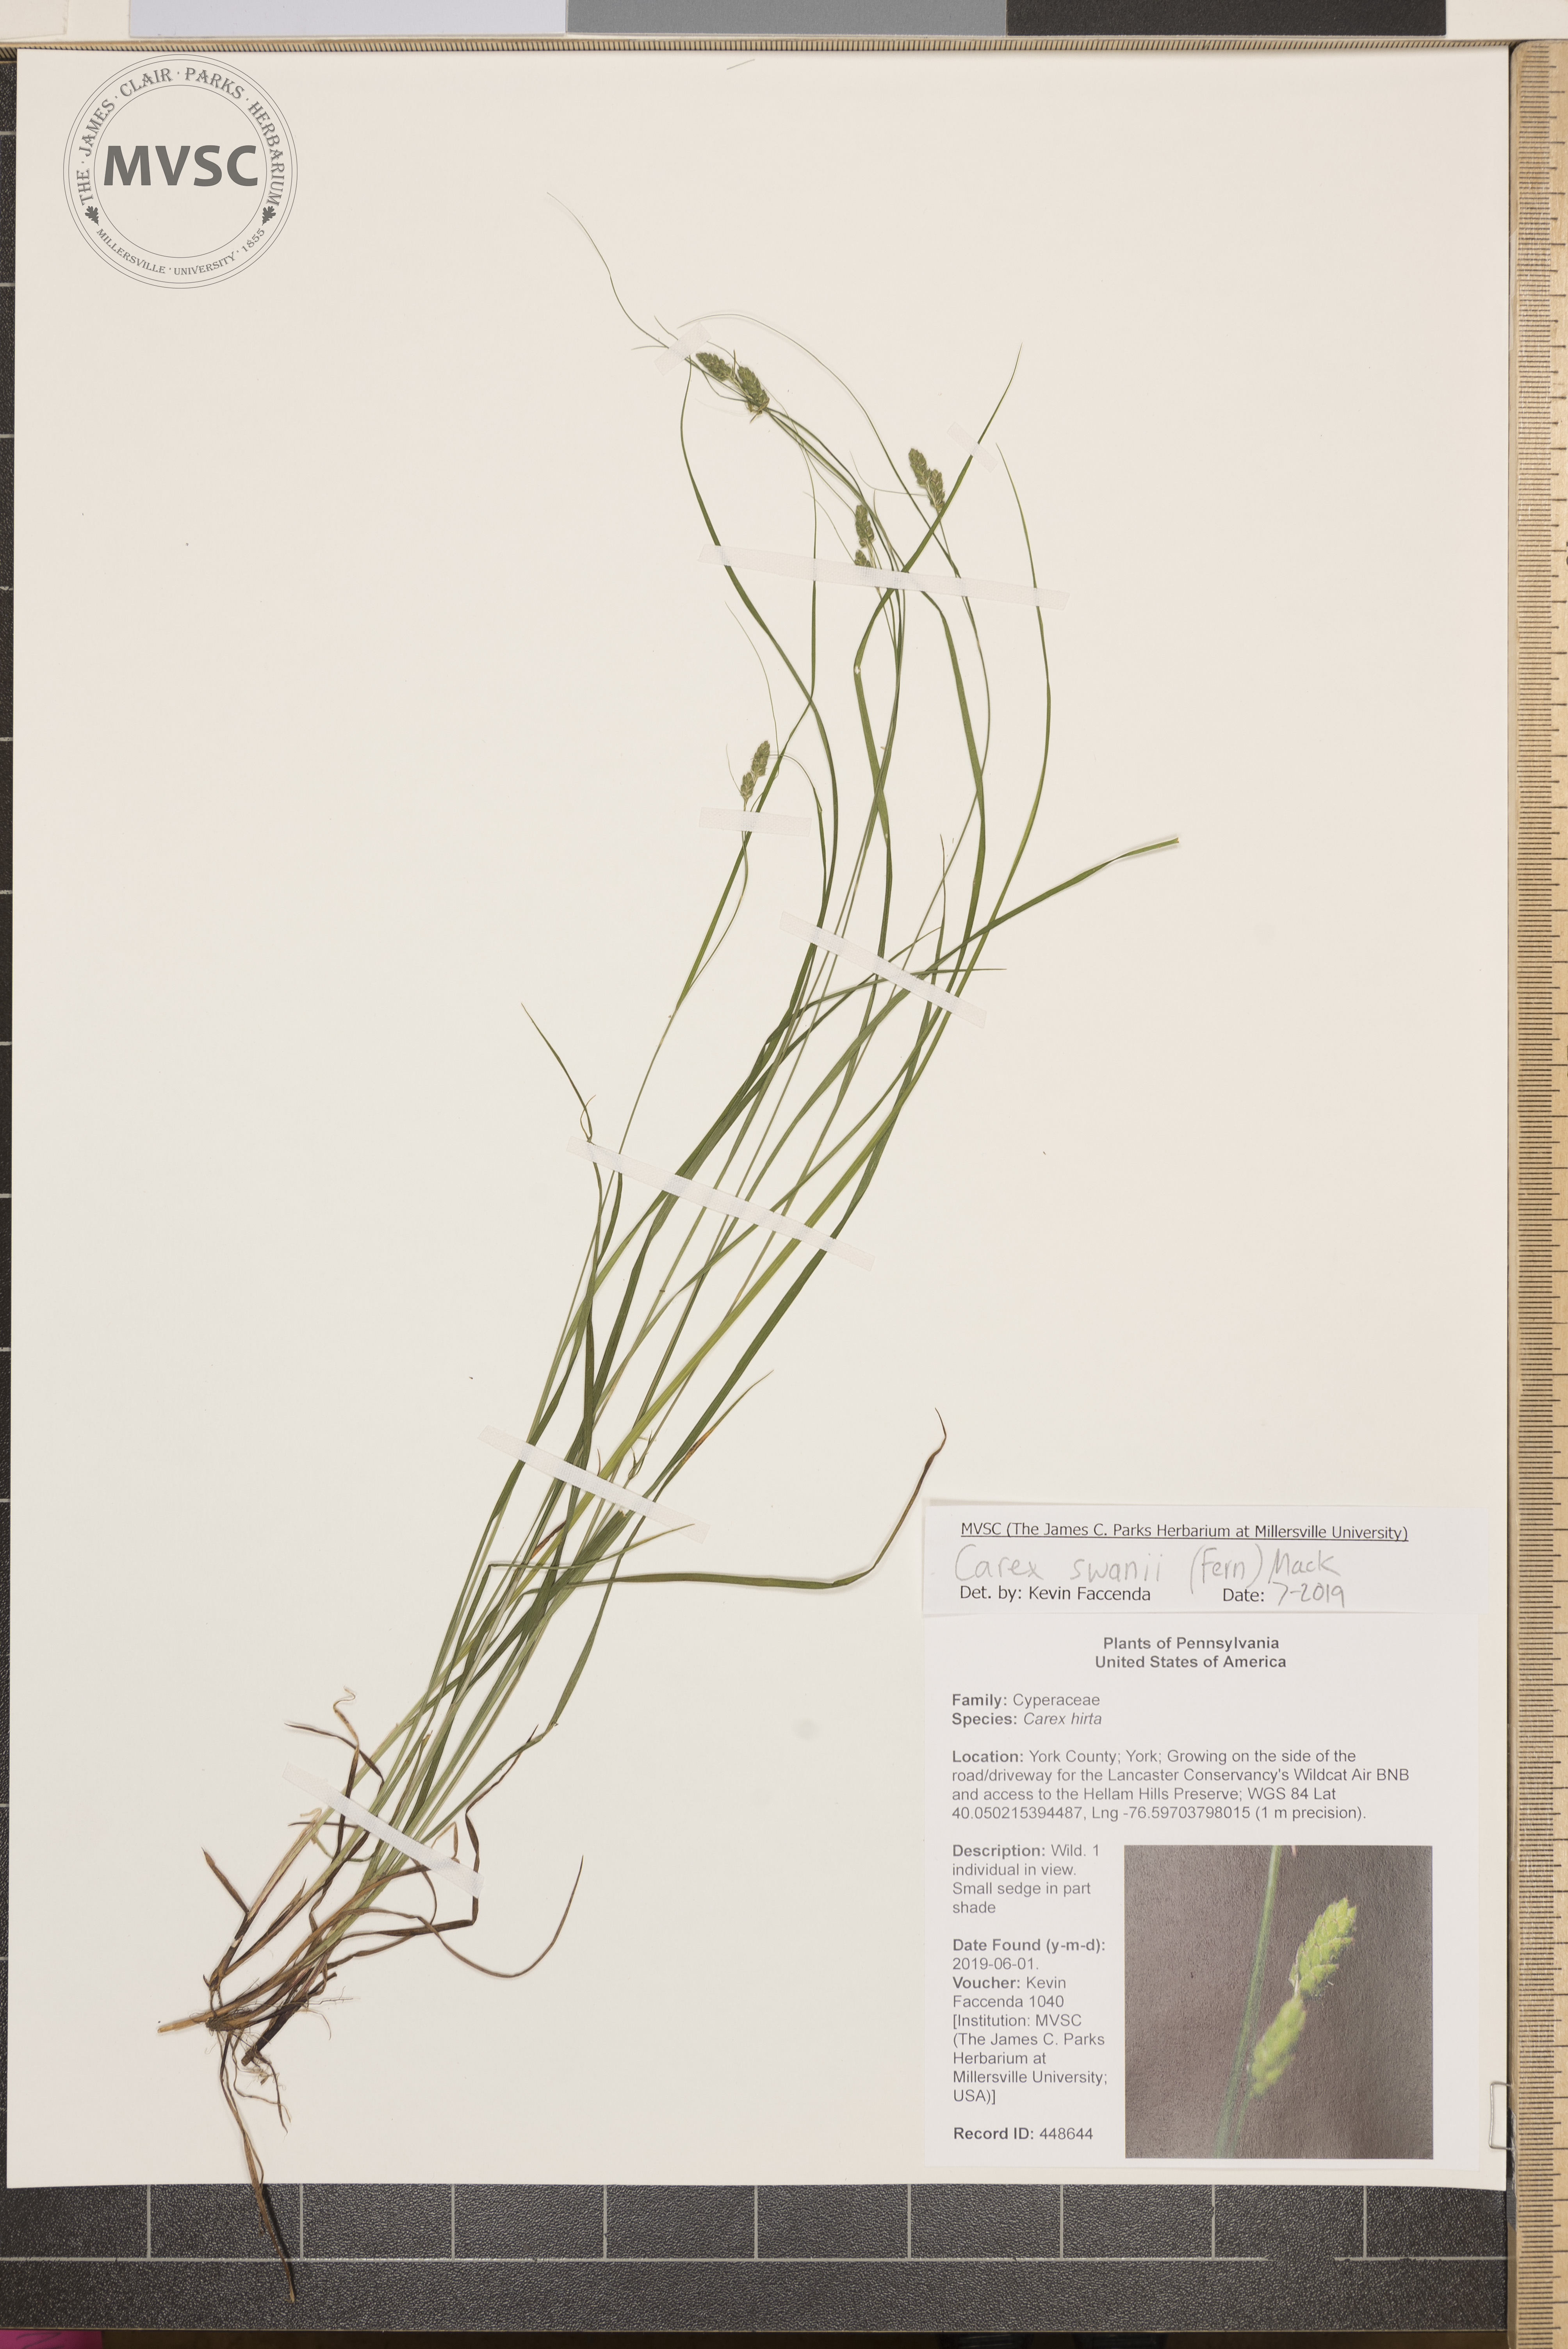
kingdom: Plantae
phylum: Tracheophyta
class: Liliopsida
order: Poales
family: Cyperaceae
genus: Carex
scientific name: Carex swanii
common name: Downy green sedge
